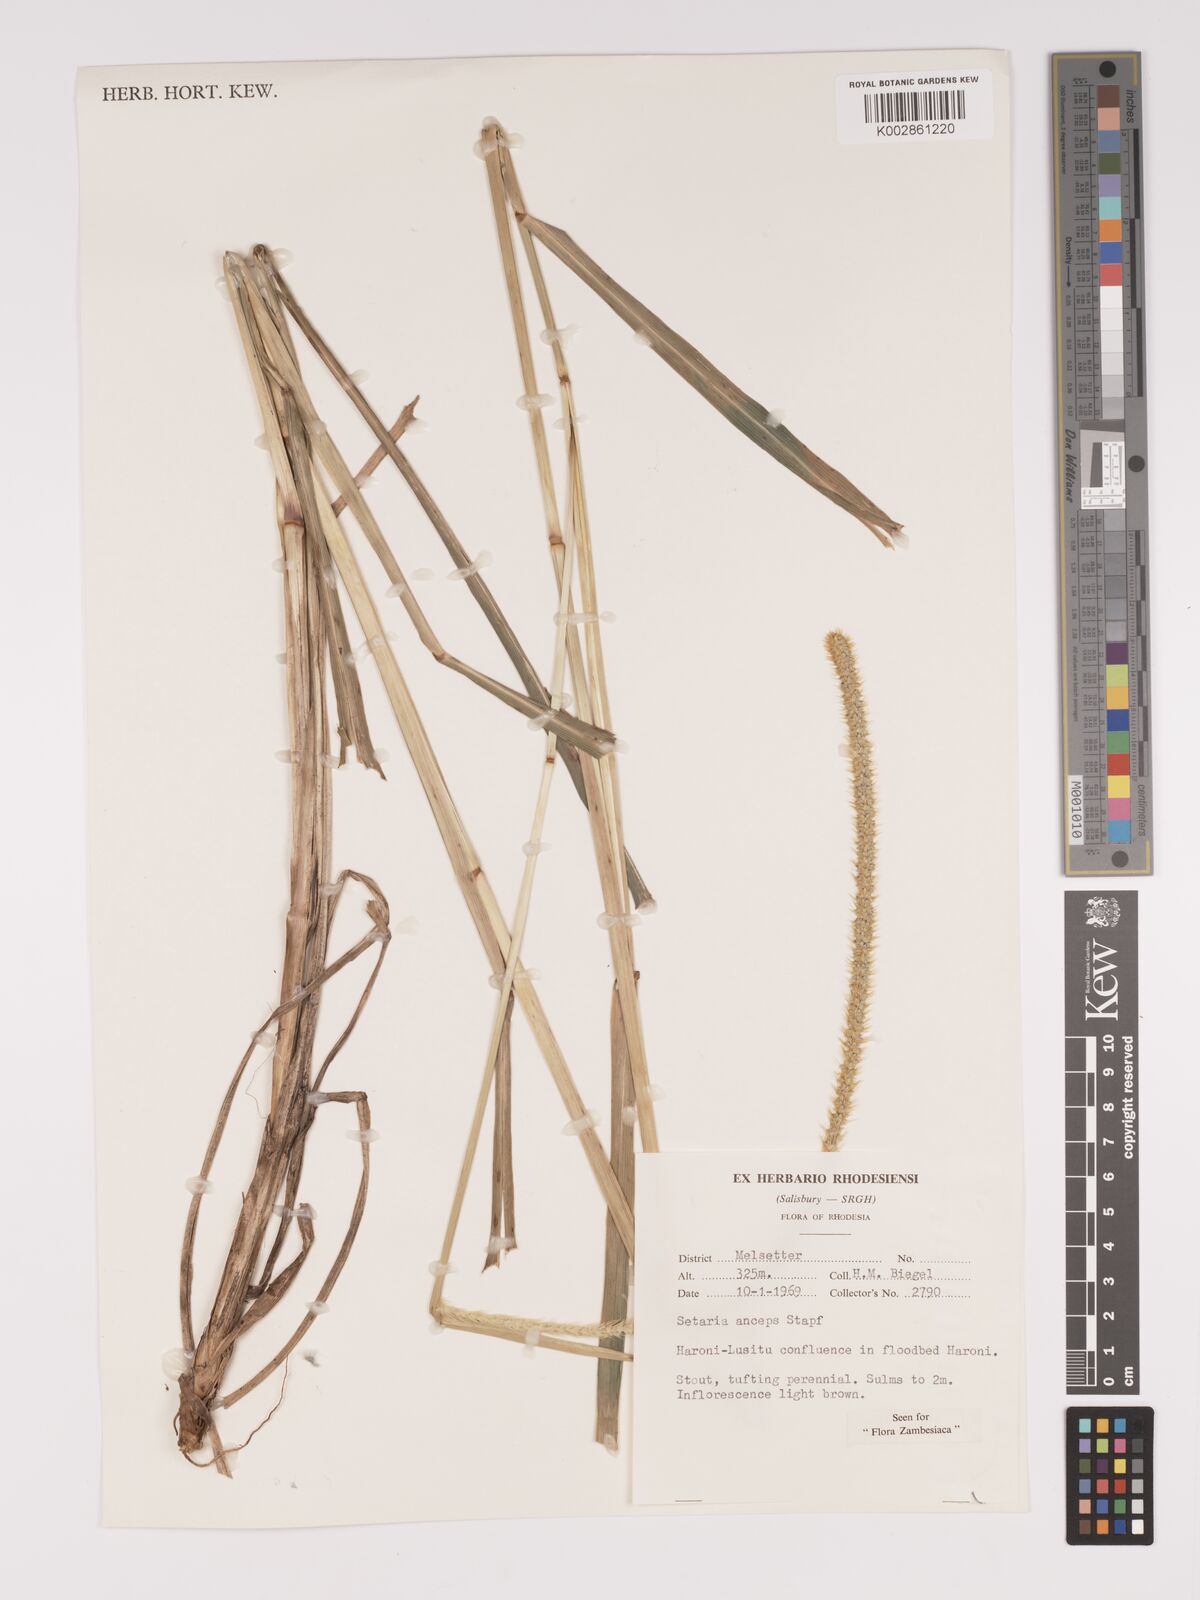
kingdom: Plantae
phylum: Tracheophyta
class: Liliopsida
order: Poales
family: Poaceae
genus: Setaria
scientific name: Setaria sphacelata
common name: African bristlegrass
